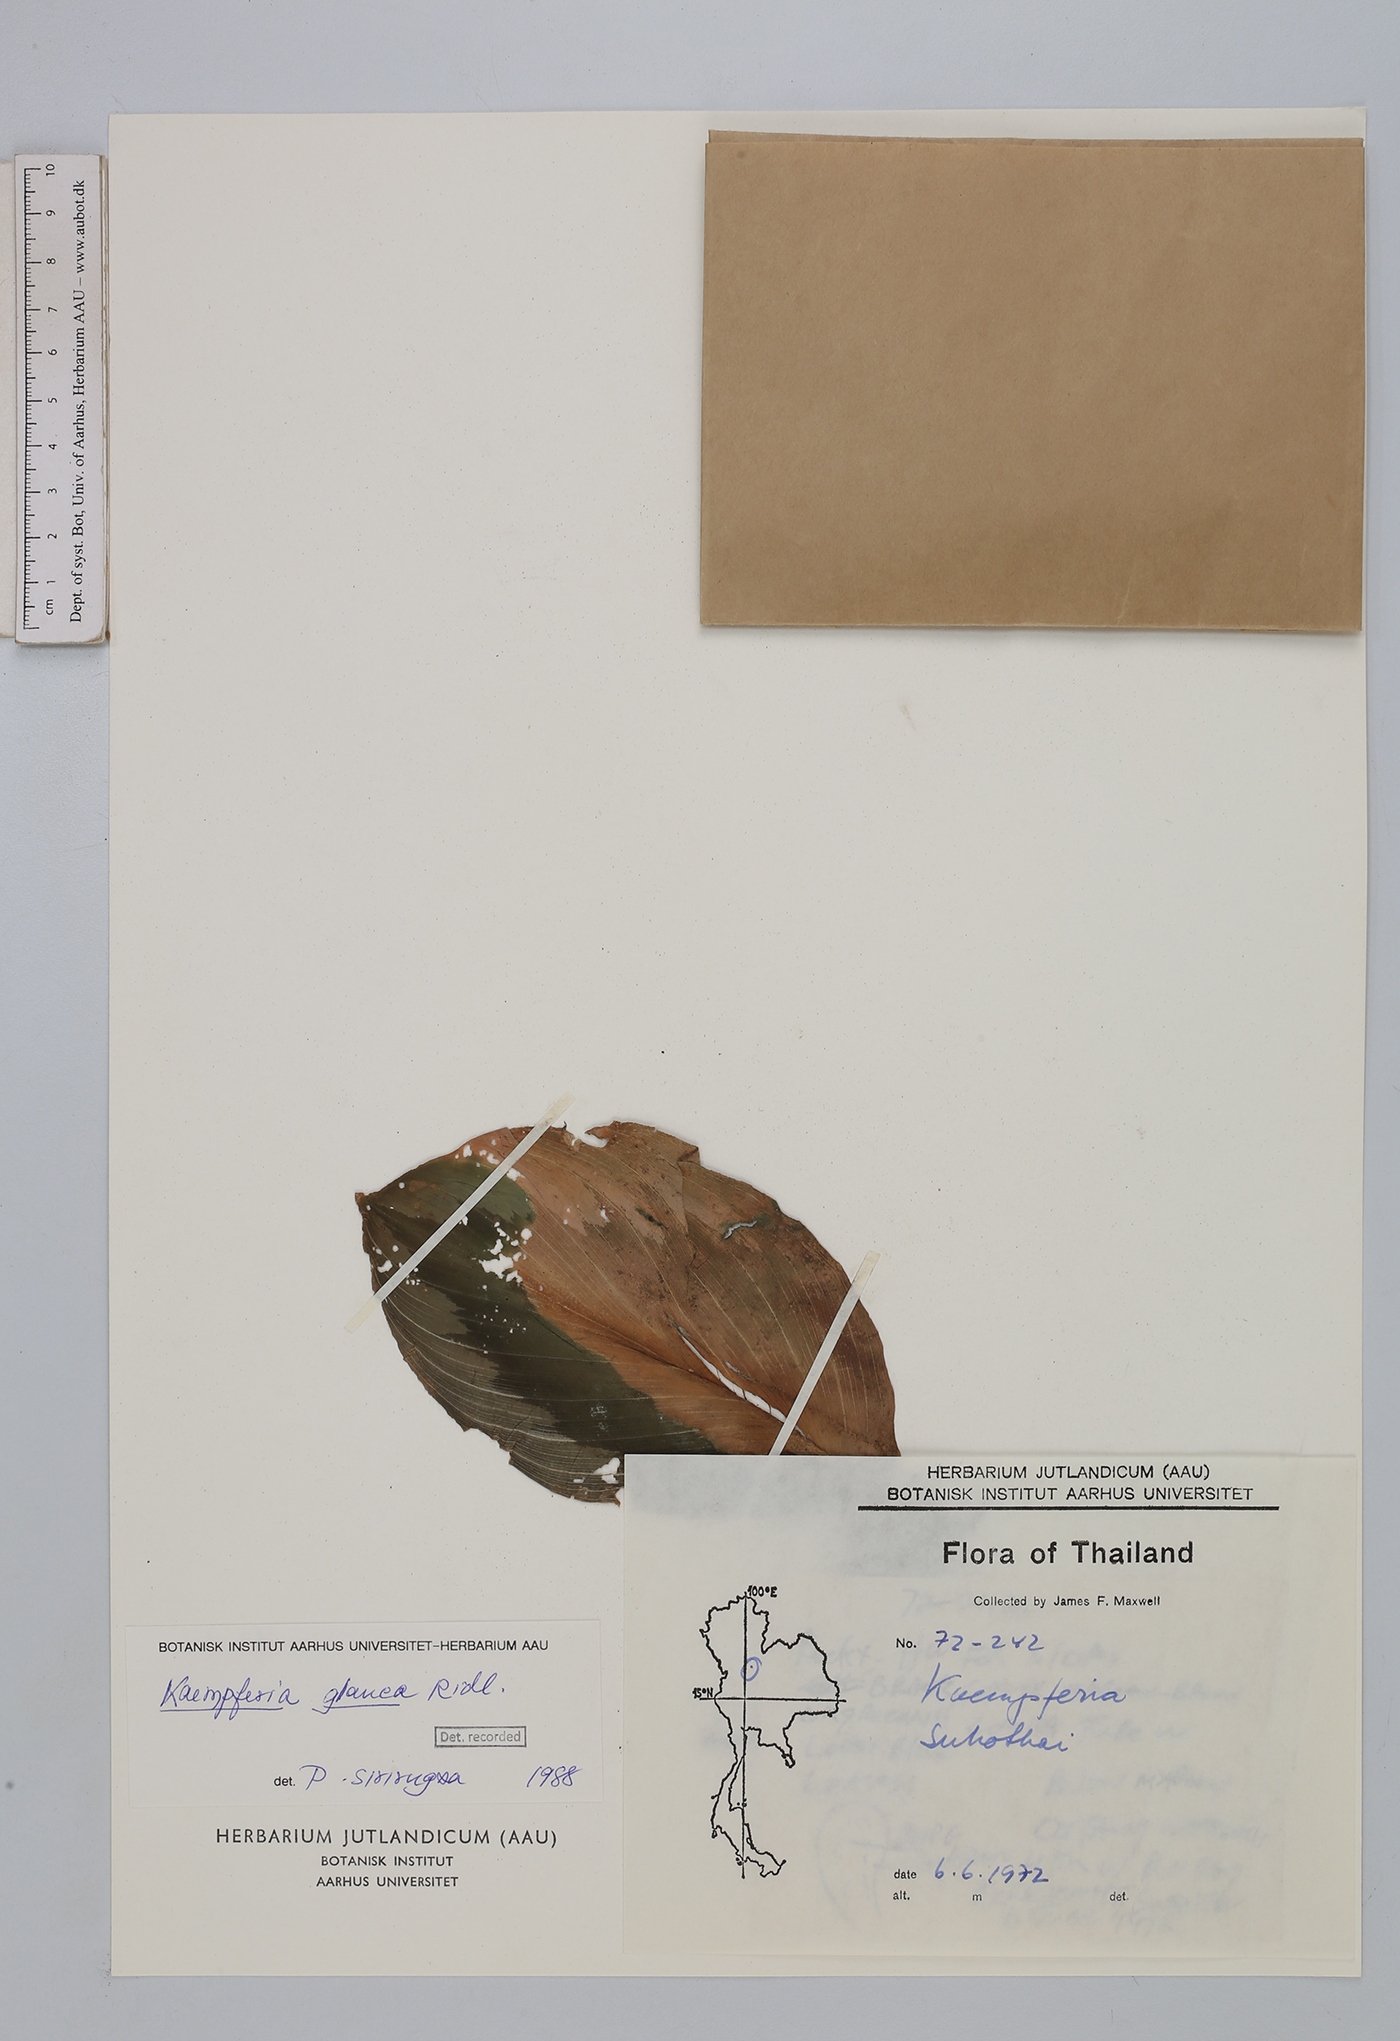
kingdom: Plantae
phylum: Tracheophyta
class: Liliopsida
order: Zingiberales
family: Zingiberaceae
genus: Kaempferia
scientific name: Kaempferia glauca
